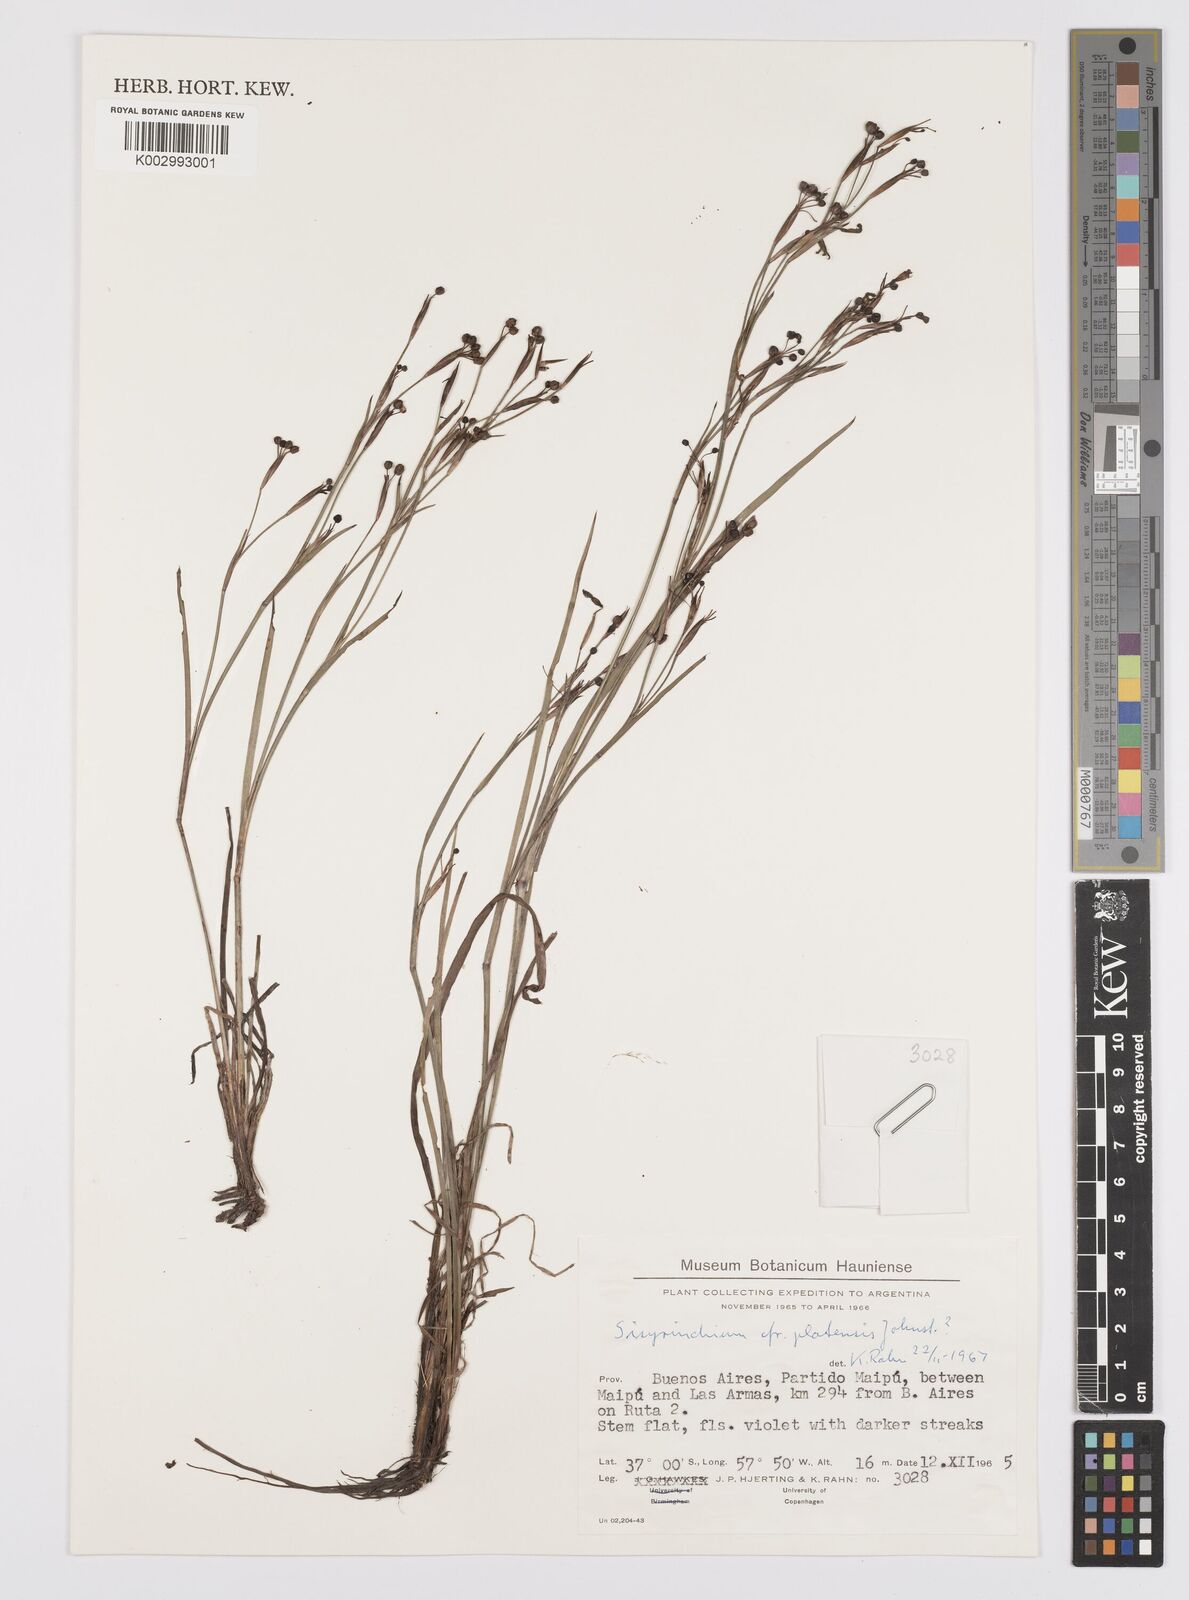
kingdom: Plantae
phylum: Tracheophyta
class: Liliopsida
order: Asparagales
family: Iridaceae
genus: Sisyrinchium
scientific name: Sisyrinchium platense
